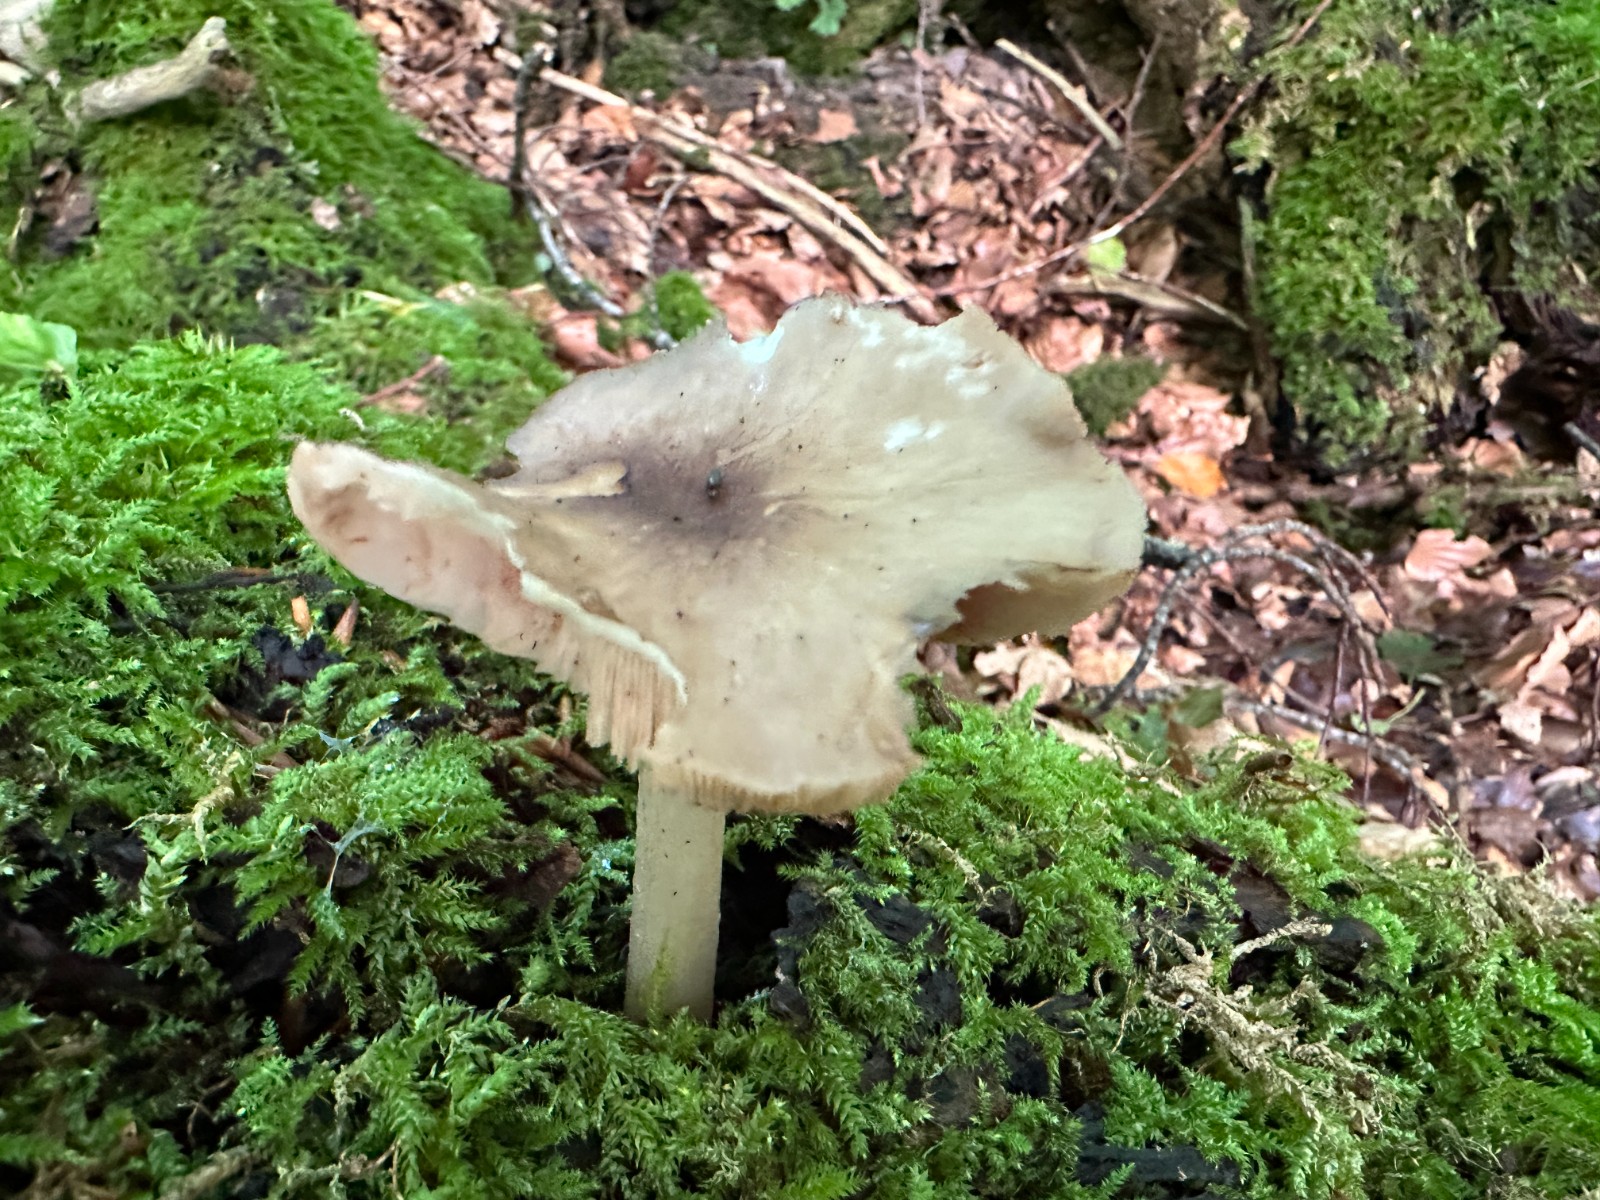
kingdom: Fungi
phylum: Basidiomycota
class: Agaricomycetes
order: Agaricales
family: Pluteaceae
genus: Pluteus
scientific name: Pluteus salicinus
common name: stiv skærmhat
